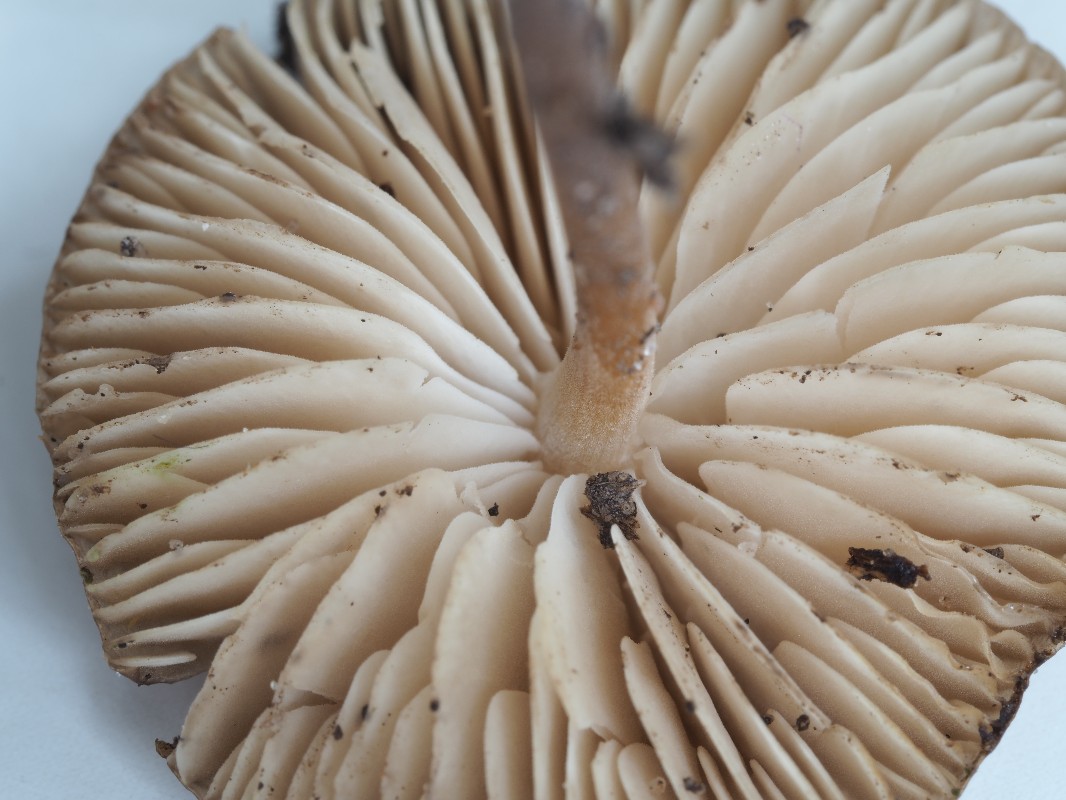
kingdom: Fungi
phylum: Basidiomycota
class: Agaricomycetes
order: Agaricales
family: Physalacriaceae
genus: Strobilurus
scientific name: Strobilurus
